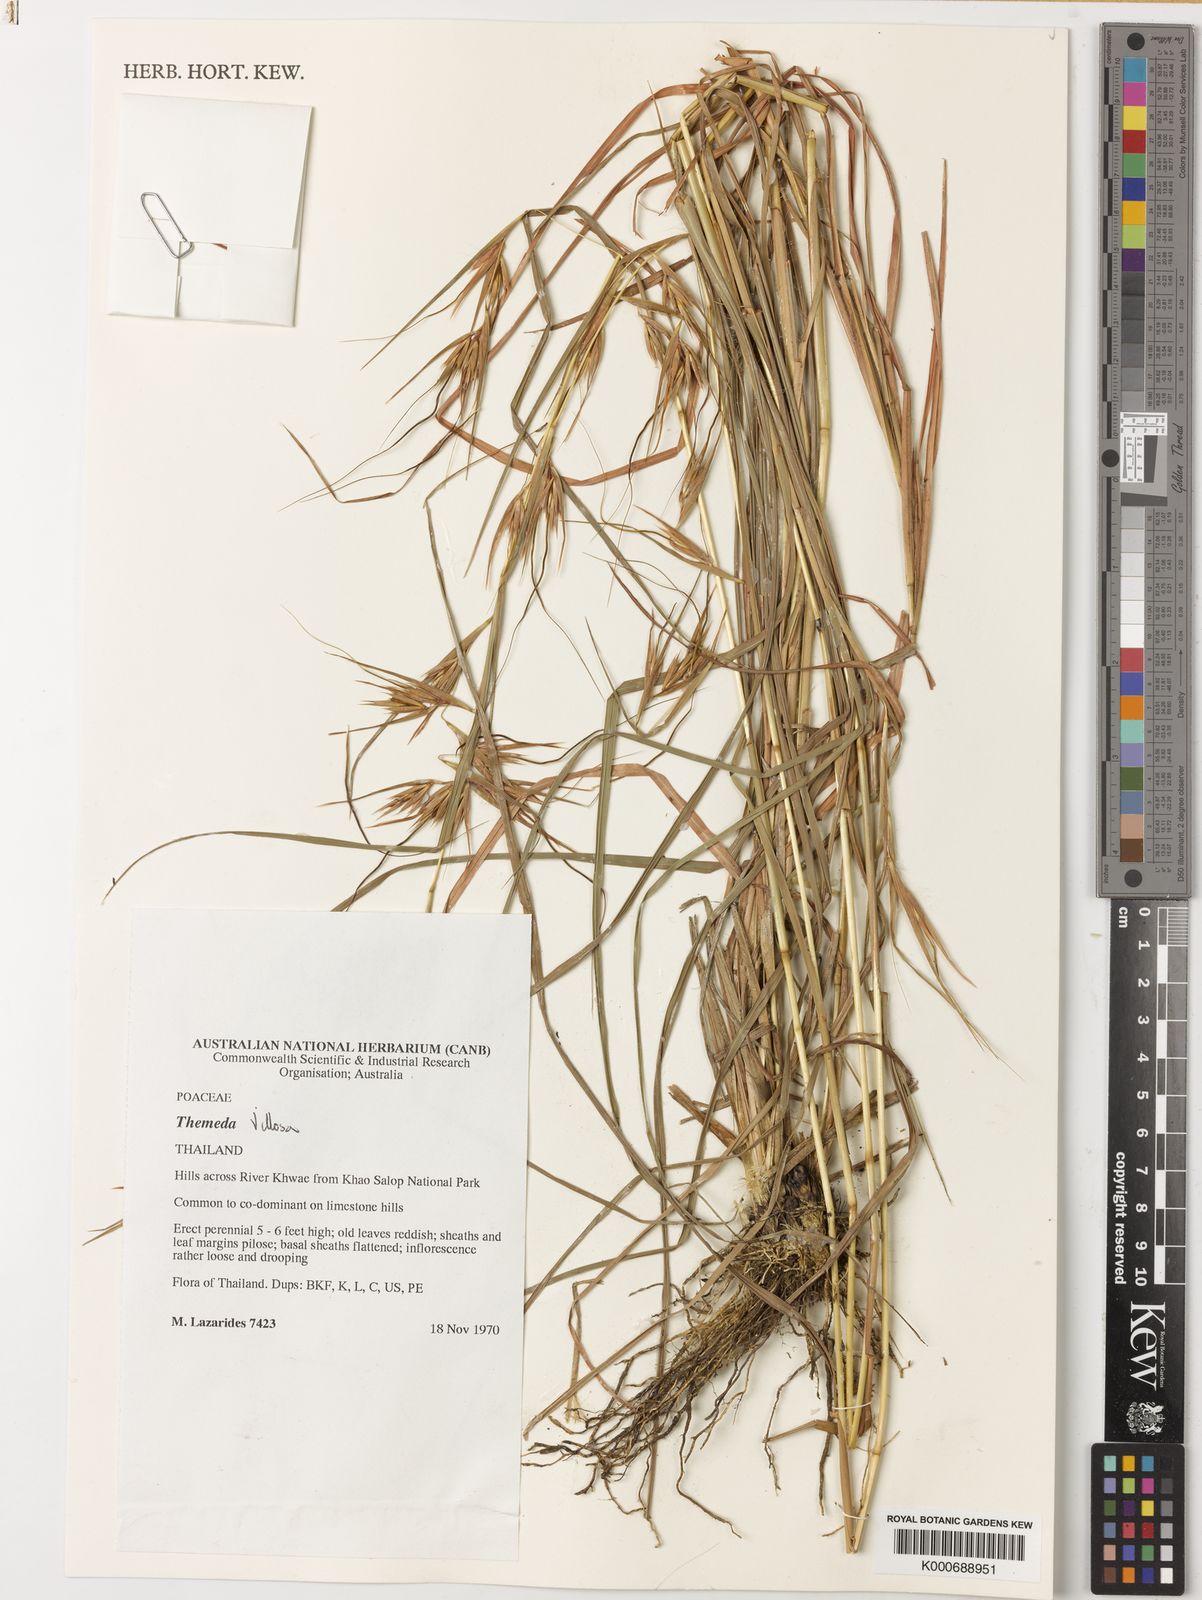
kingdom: Plantae
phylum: Tracheophyta
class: Liliopsida
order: Poales
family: Poaceae
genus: Themeda
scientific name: Themeda villosa
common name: Silky kangaroo grass
